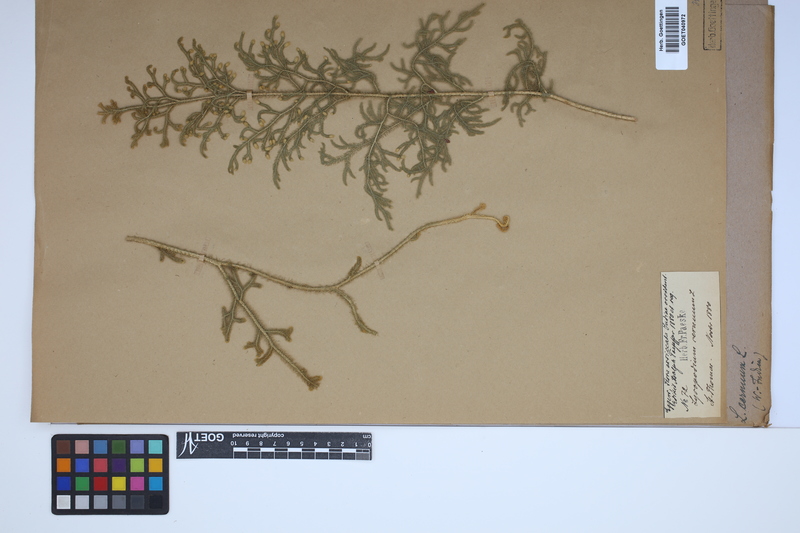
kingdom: Plantae
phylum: Tracheophyta
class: Lycopodiopsida
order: Lycopodiales
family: Lycopodiaceae
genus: Palhinhaea
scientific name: Palhinhaea cernua
